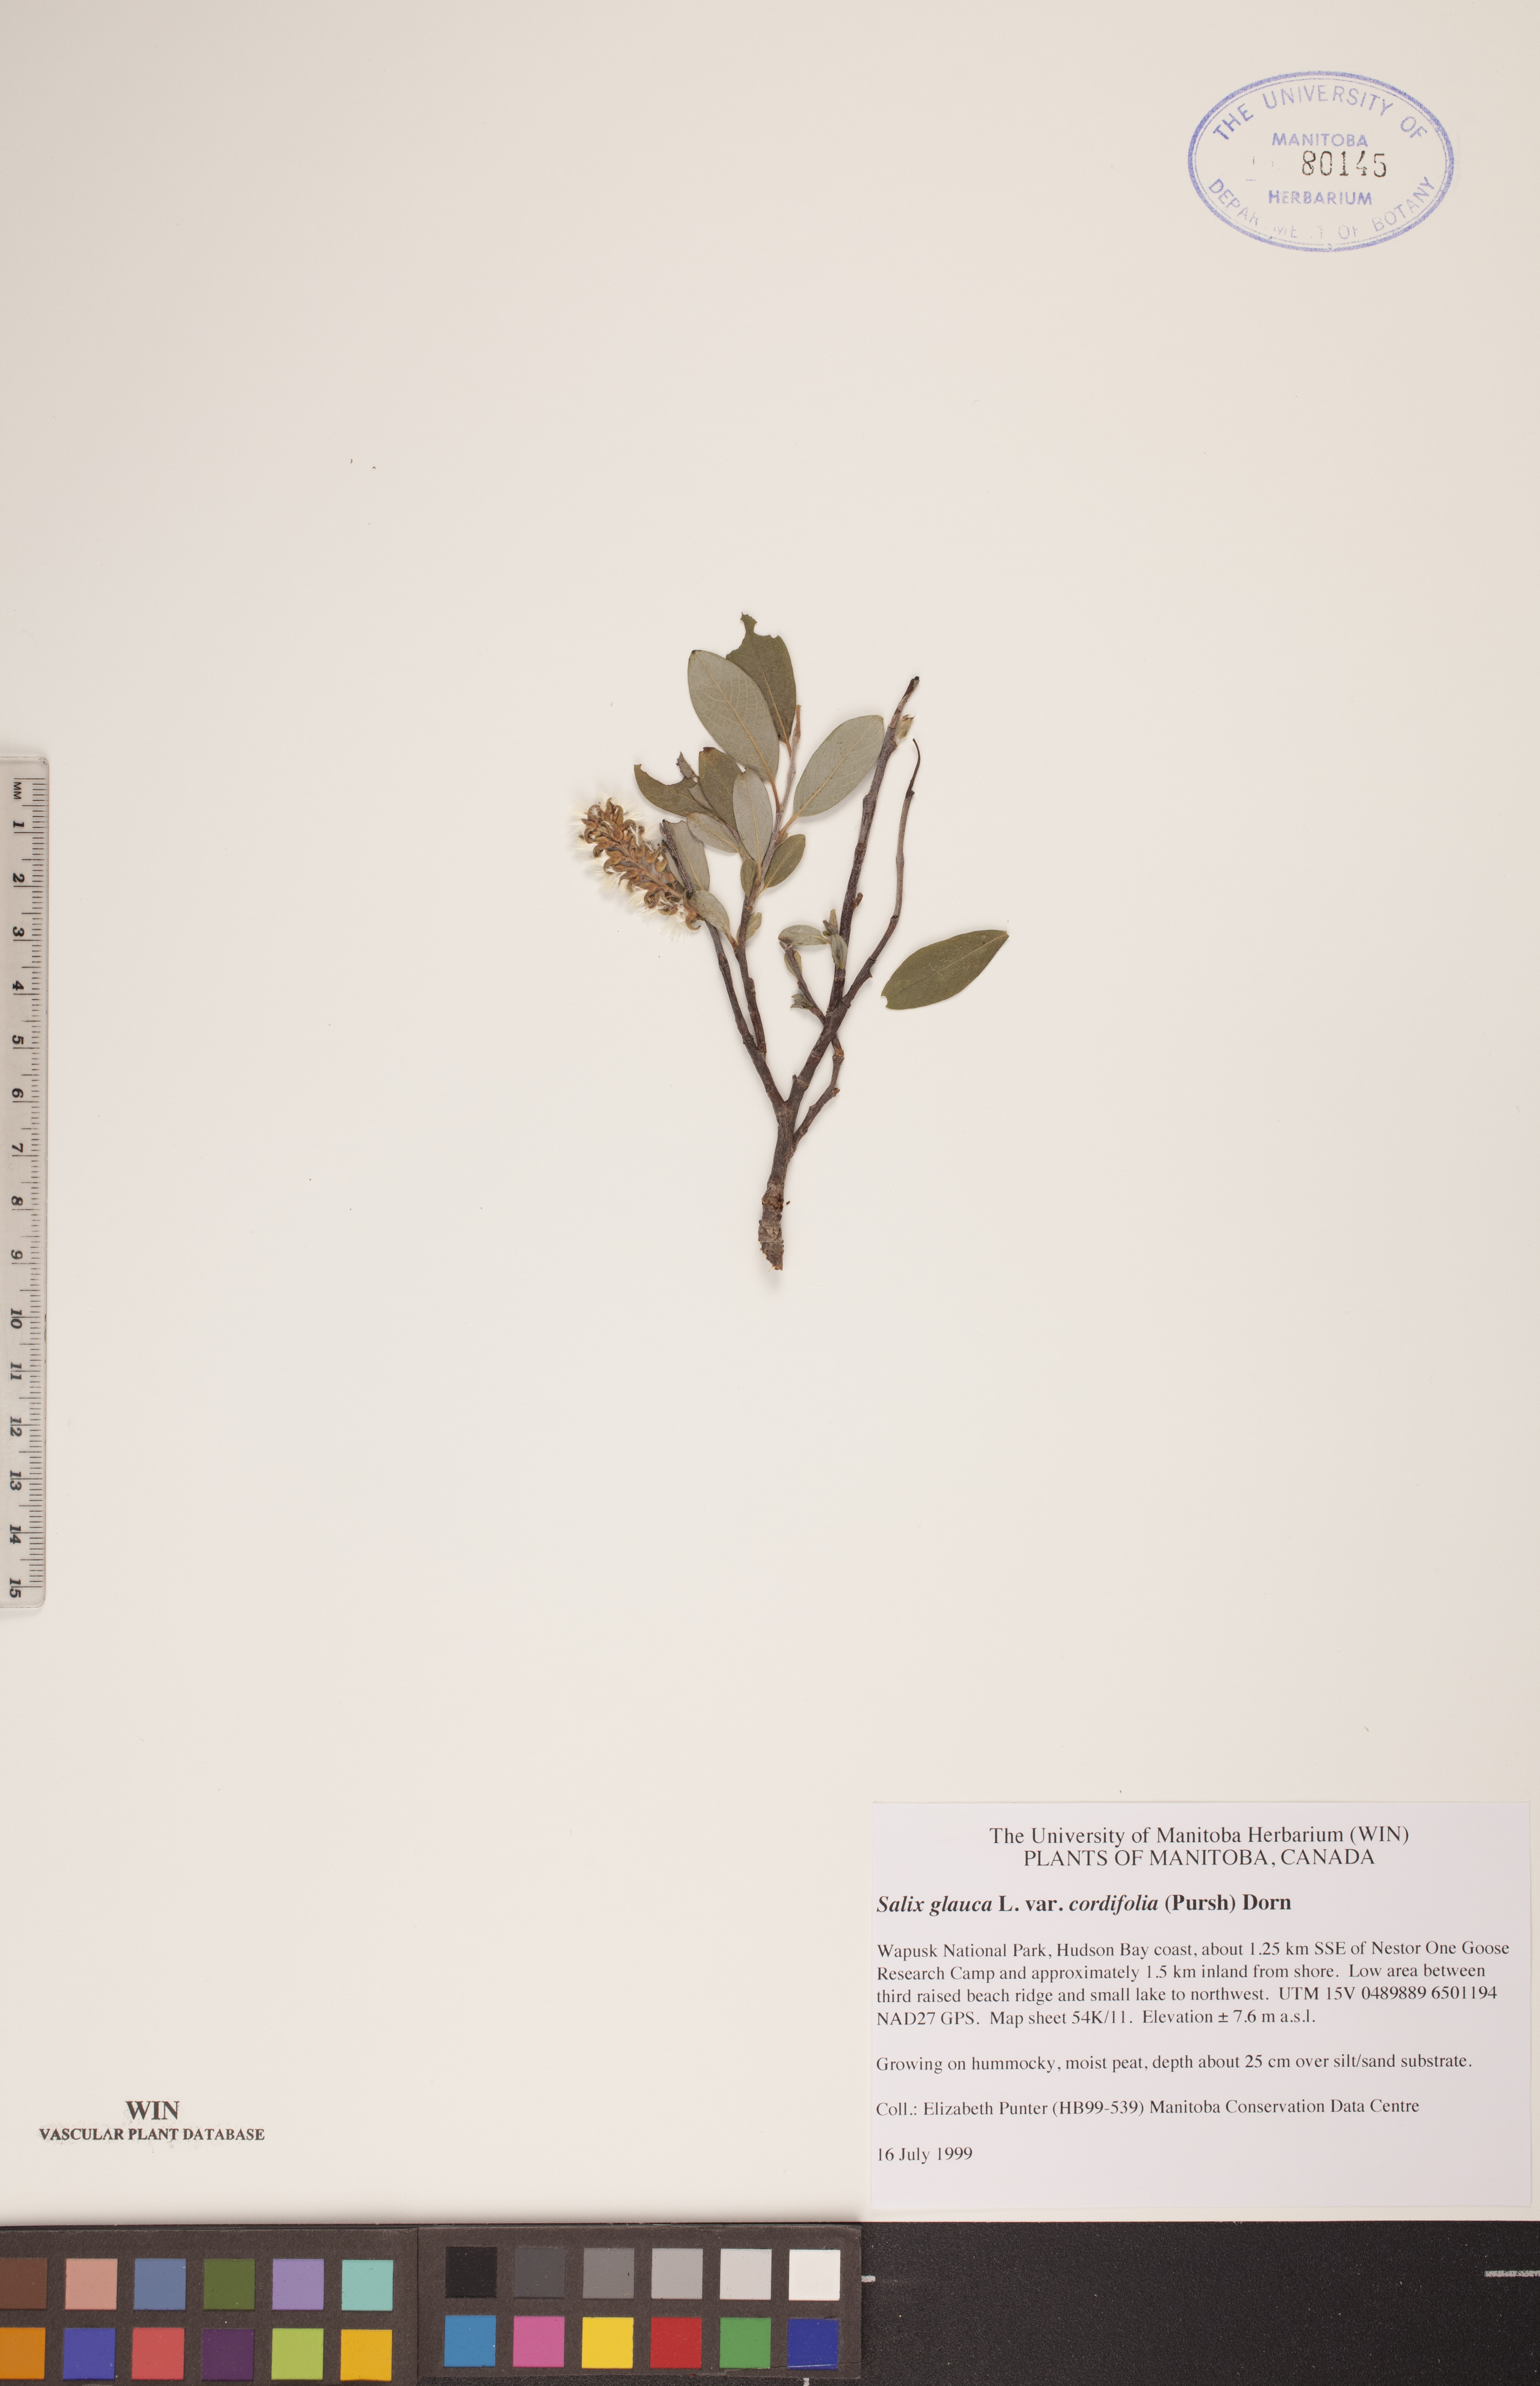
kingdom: Plantae
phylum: Tracheophyta
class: Magnoliopsida
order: Malpighiales
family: Salicaceae
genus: Salix
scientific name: Salix glauca
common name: Glaucous willow
